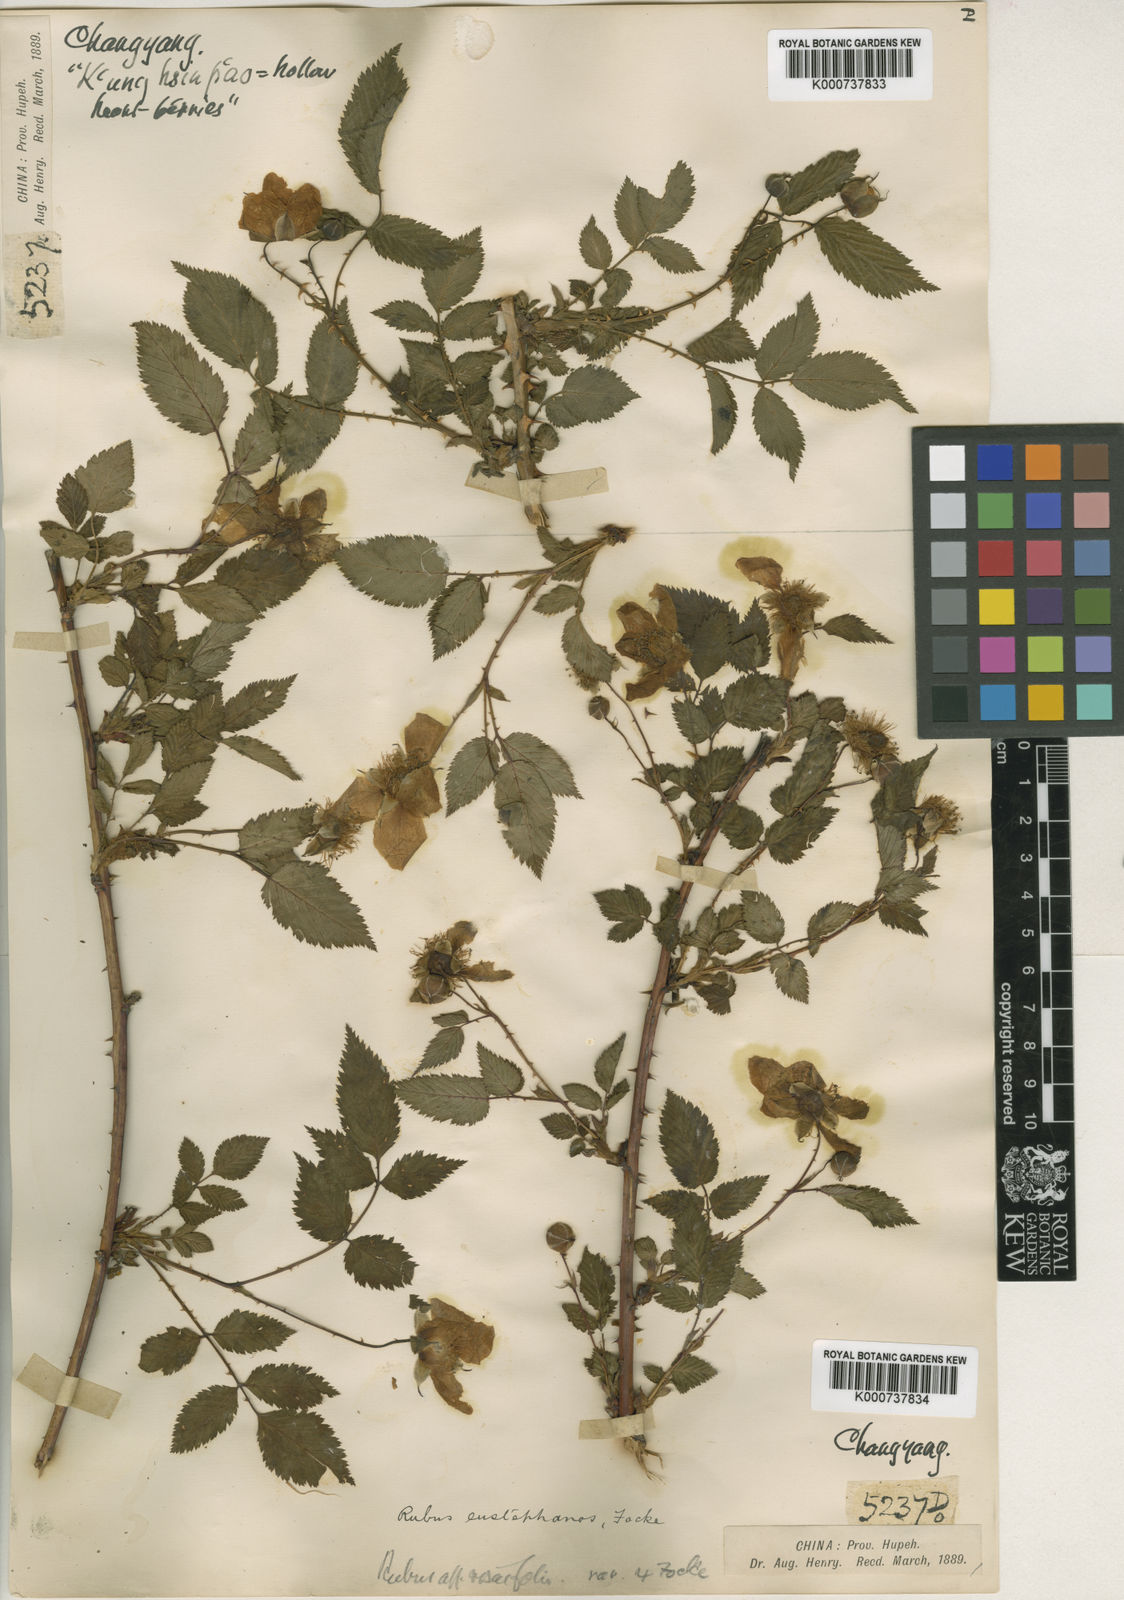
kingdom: Plantae
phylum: Tracheophyta
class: Magnoliopsida
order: Rosales
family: Rosaceae
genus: Rubus
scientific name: Rubus eustephanos
